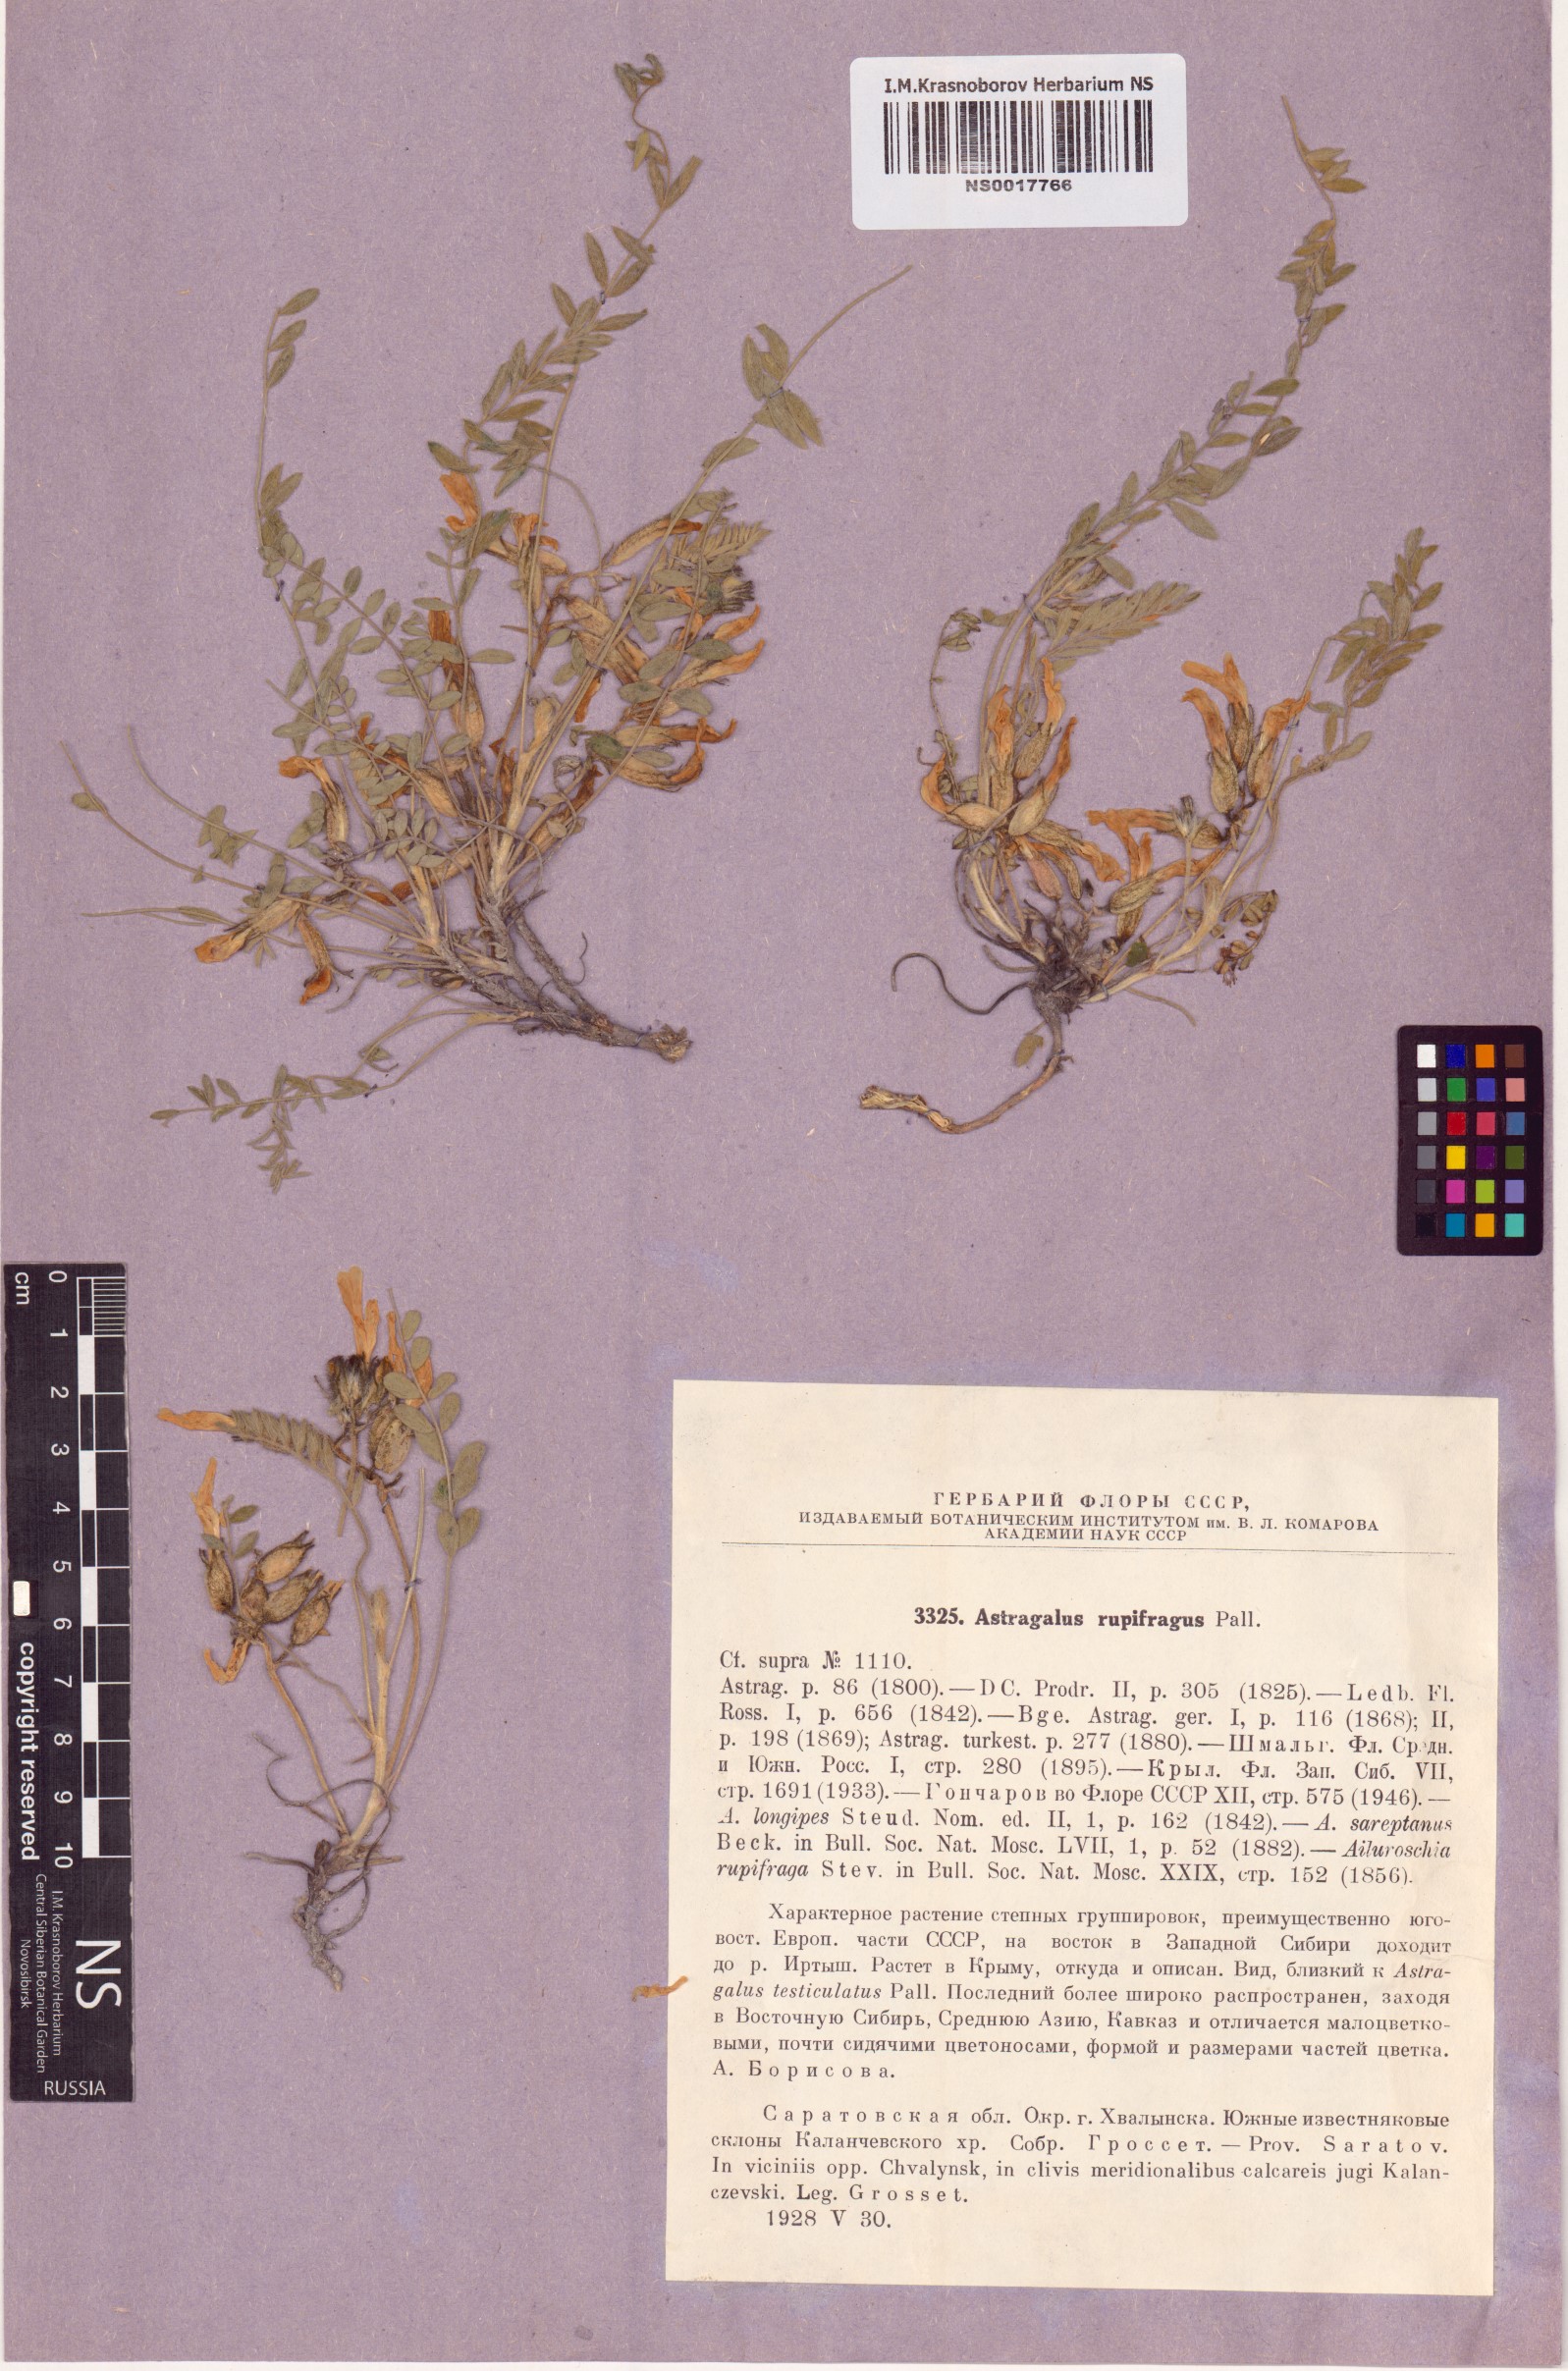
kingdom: Plantae
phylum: Tracheophyta
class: Magnoliopsida
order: Fabales
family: Fabaceae
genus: Astragalus
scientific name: Astragalus rupifragus
